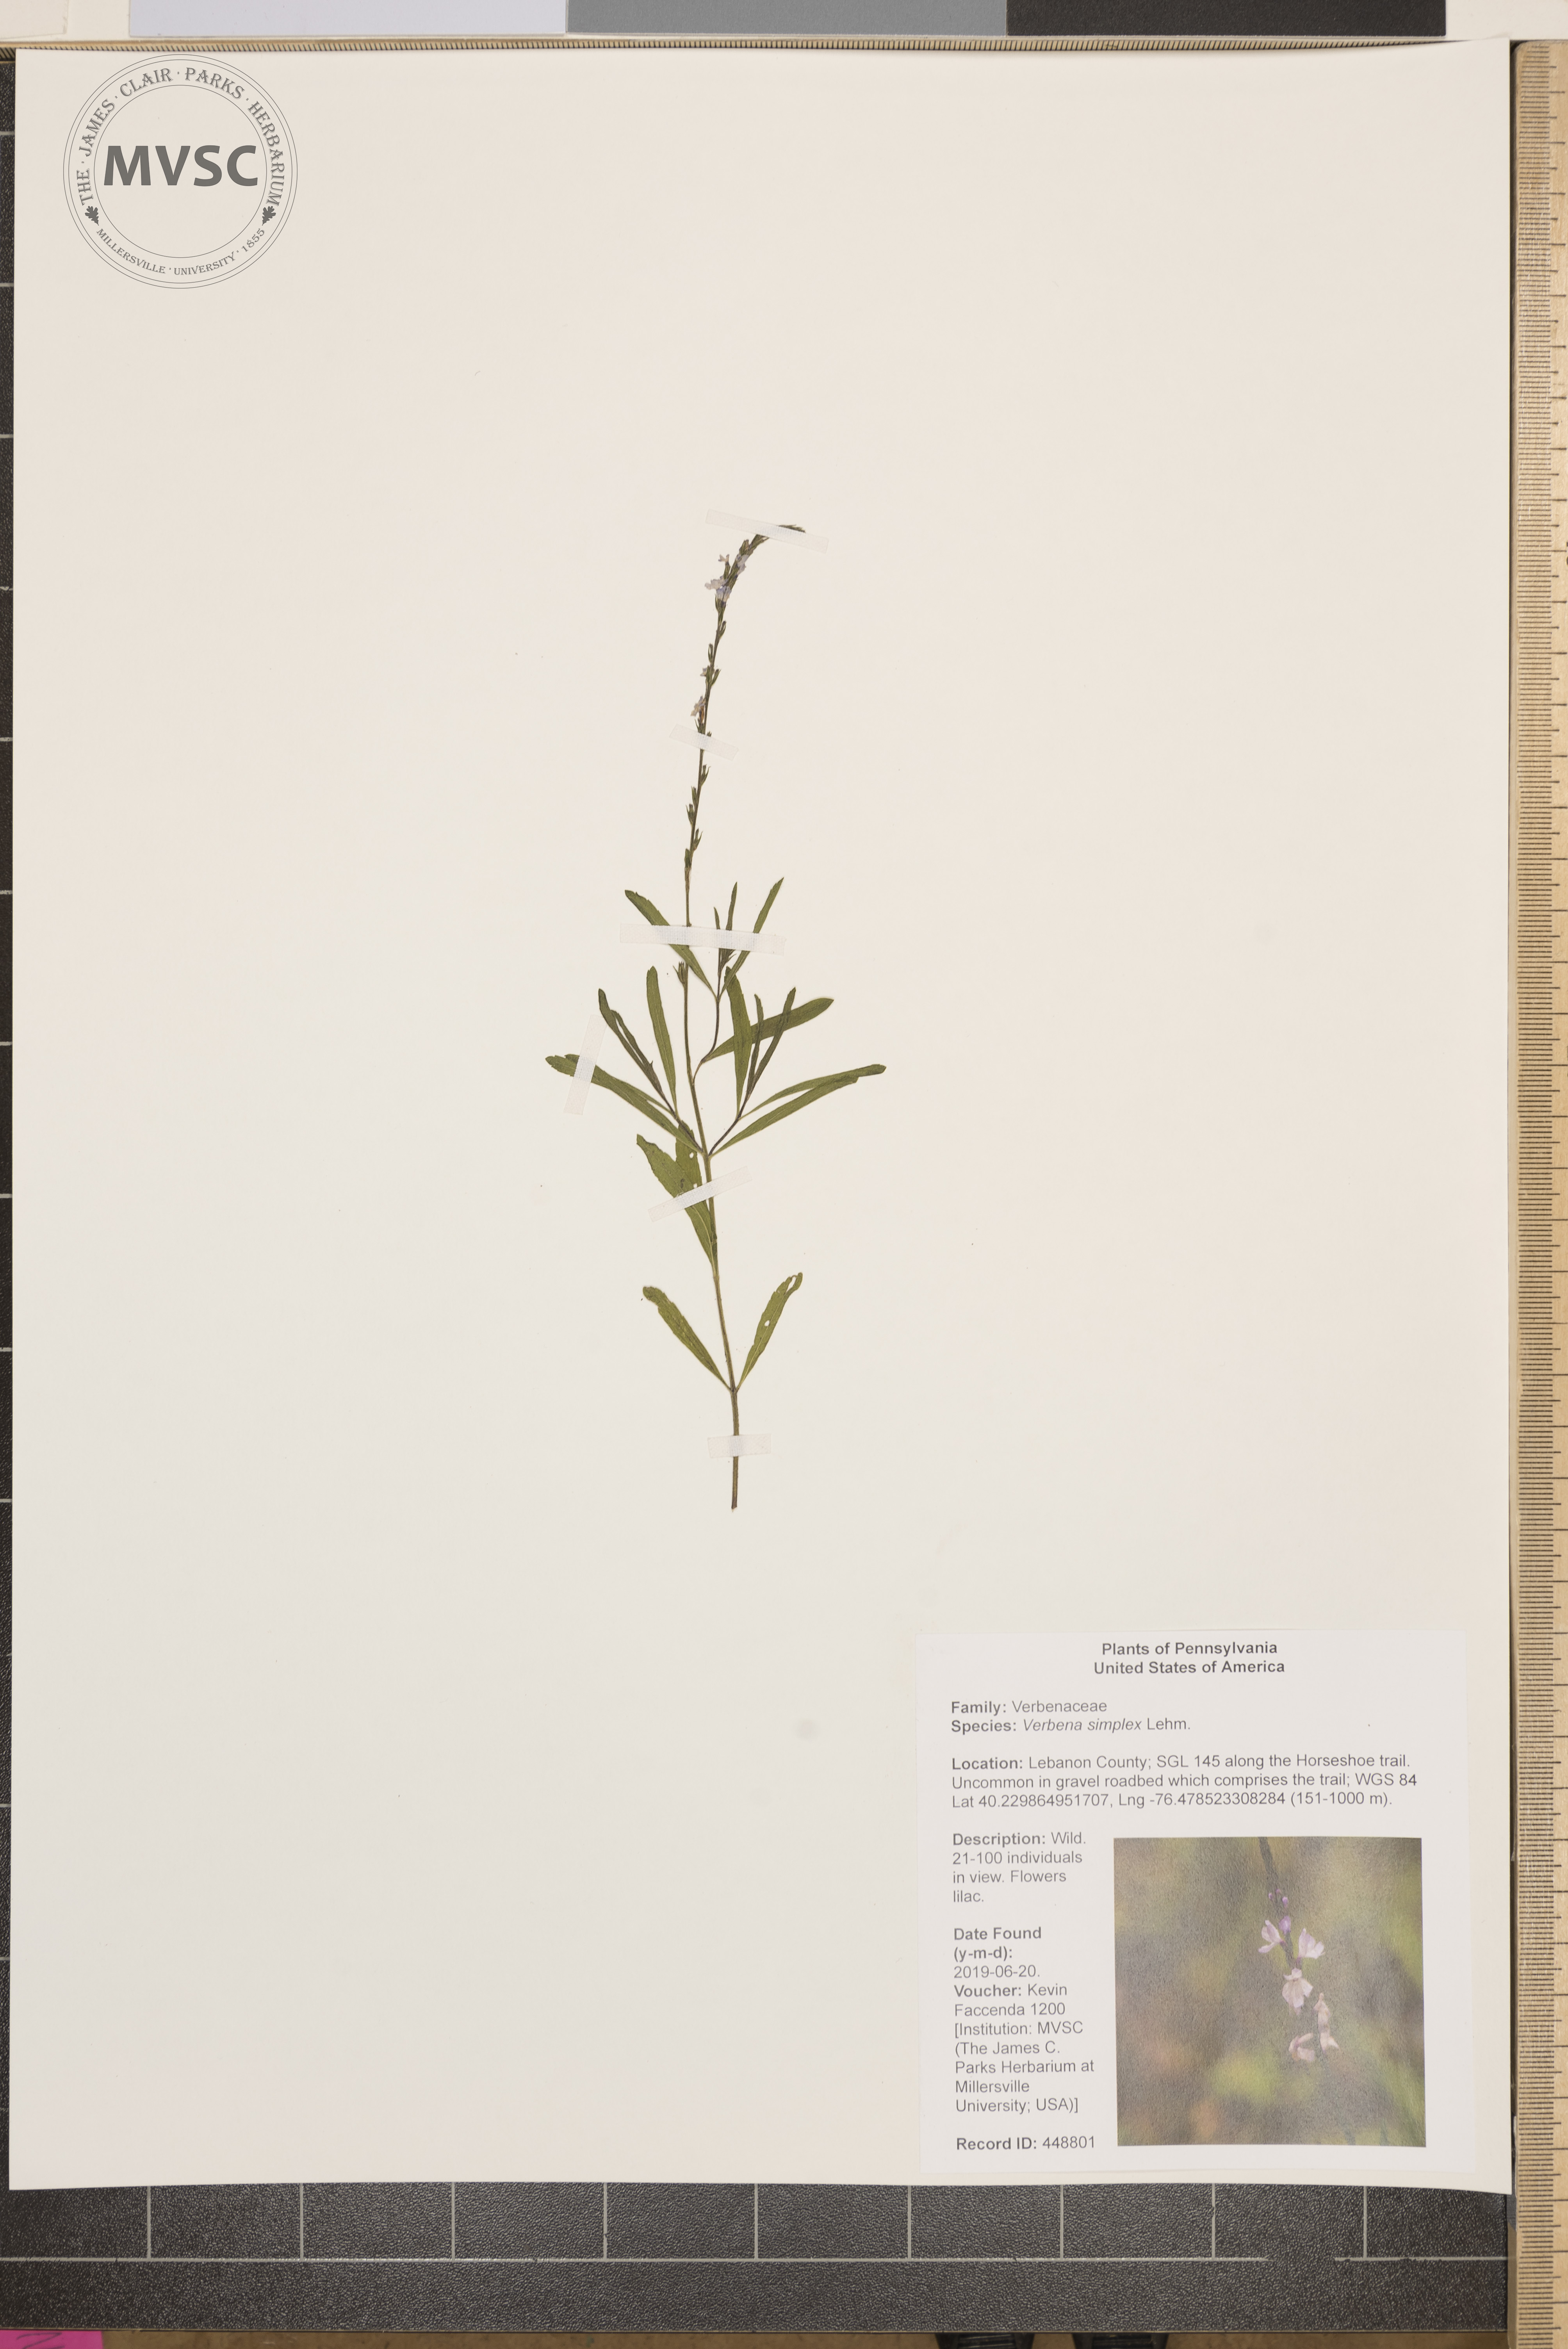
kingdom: Plantae
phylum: Tracheophyta
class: Magnoliopsida
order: Lamiales
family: Verbenaceae
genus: Verbena
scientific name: Verbena simplex
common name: Narrow-leaf vervain
